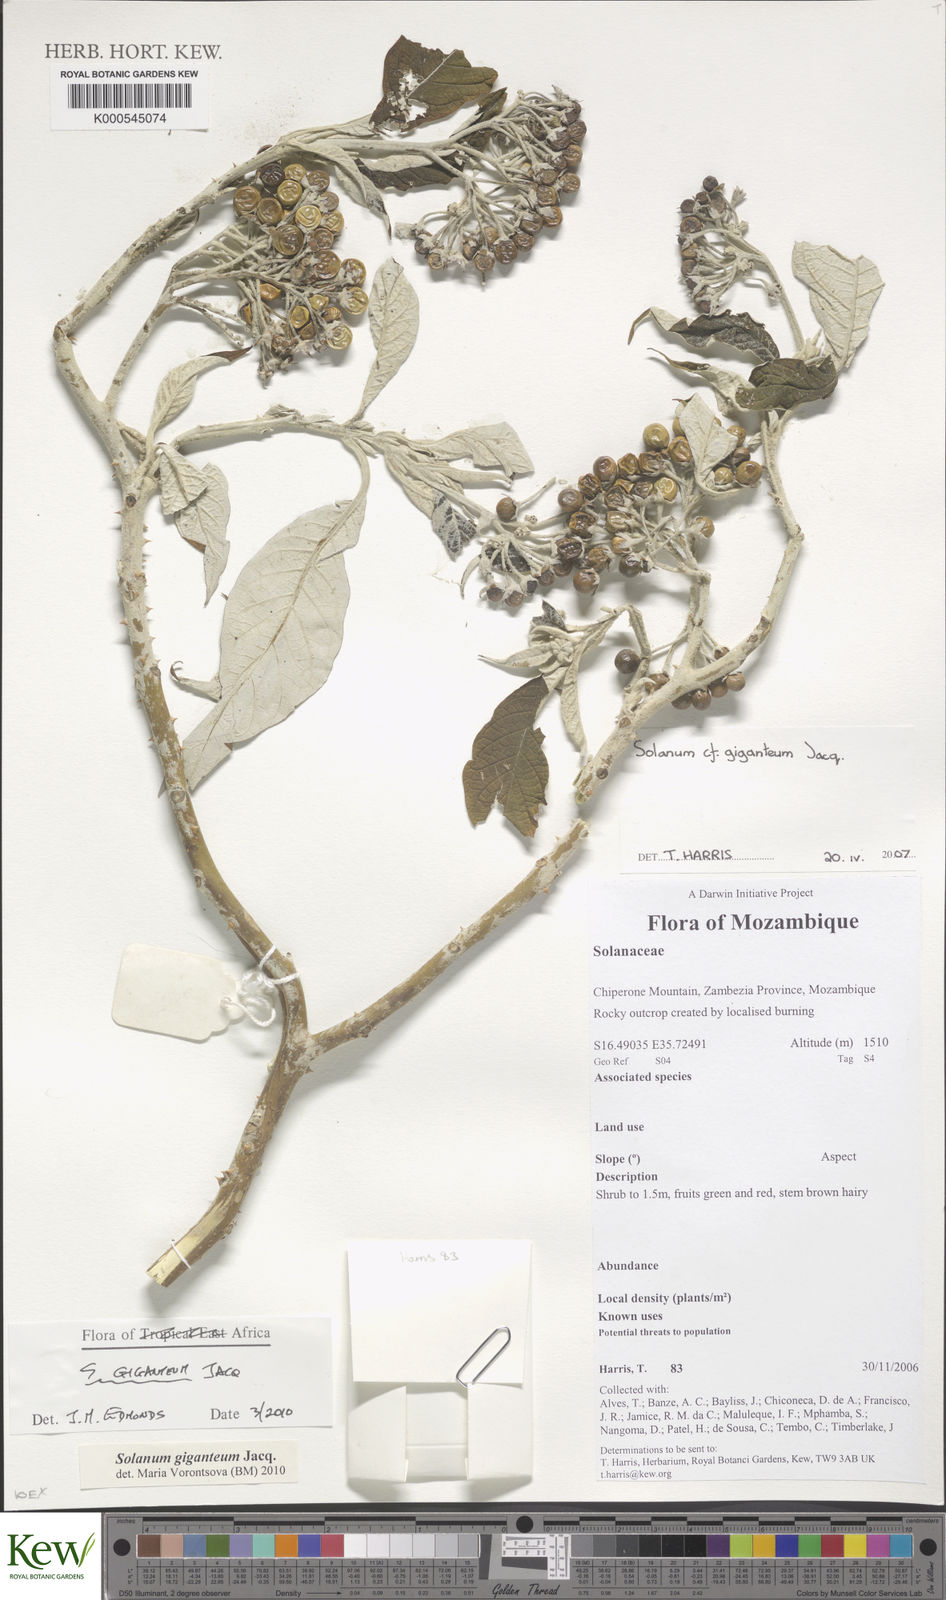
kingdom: Plantae
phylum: Tracheophyta
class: Magnoliopsida
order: Solanales
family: Solanaceae
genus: Solanum
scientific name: Solanum giganteum
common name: Healing-leaf-tree
